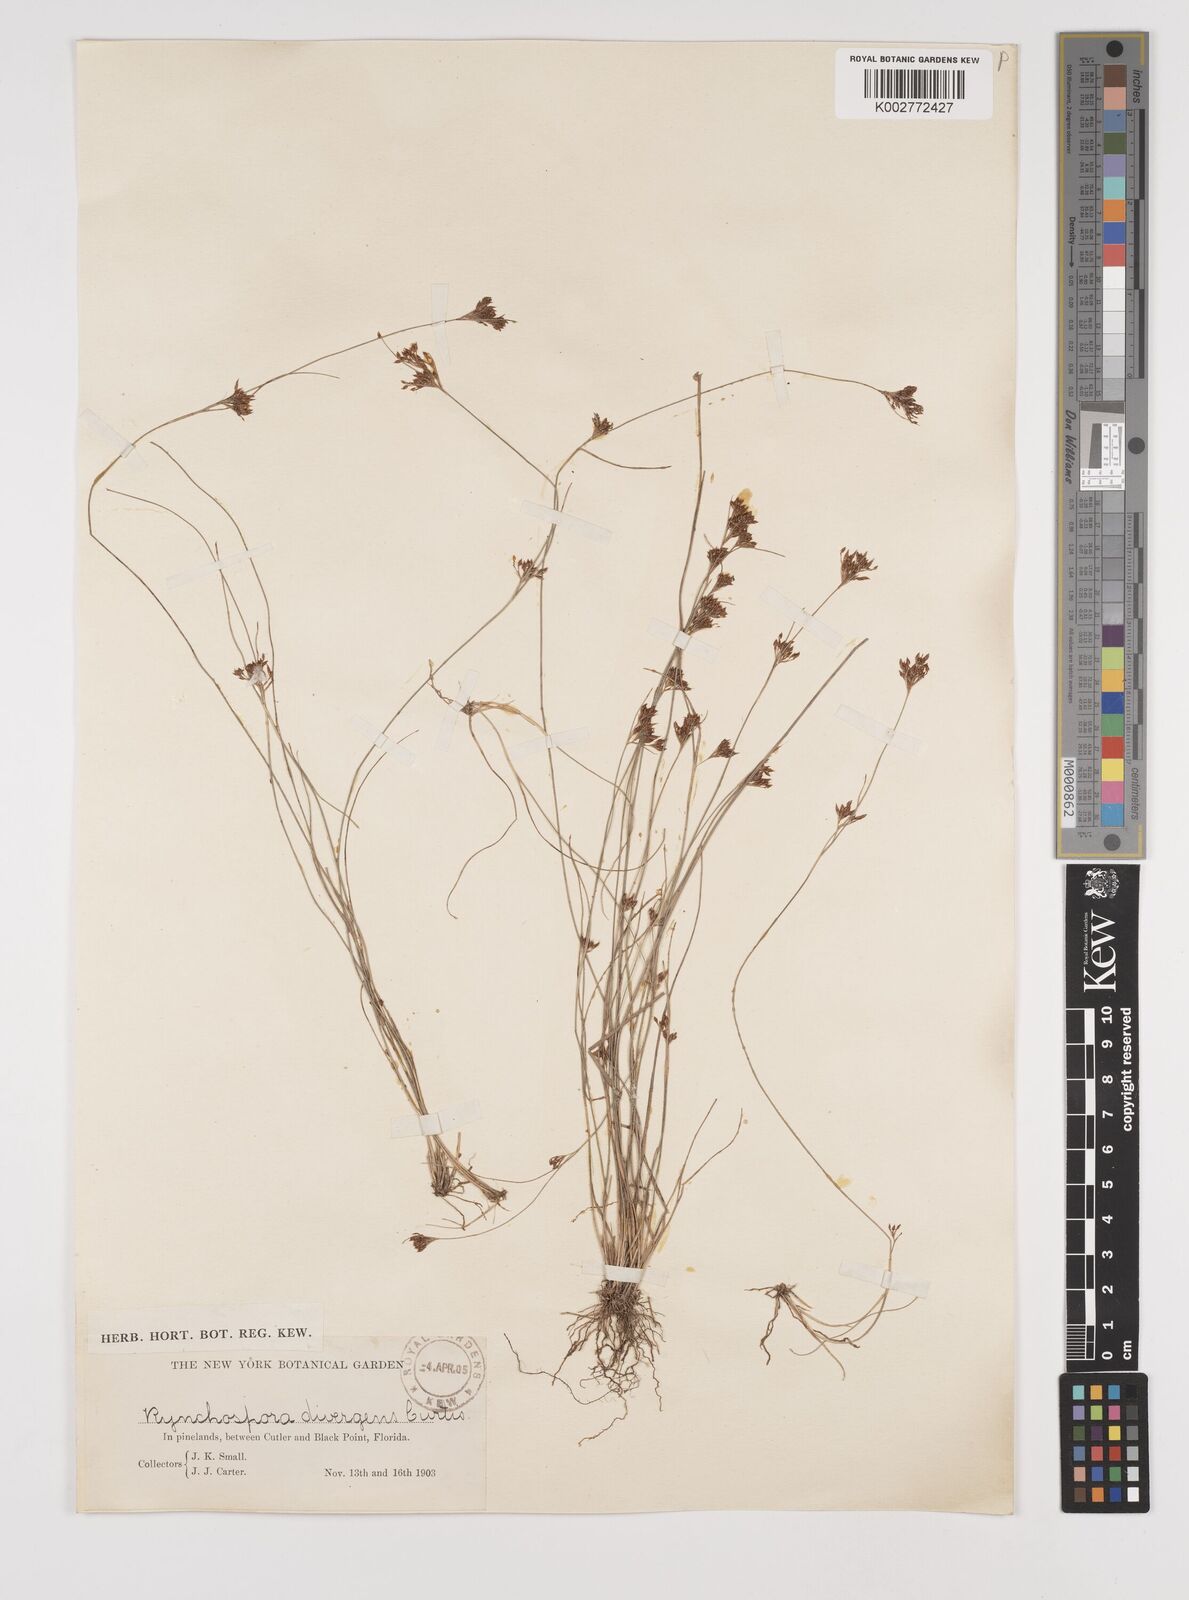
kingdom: Plantae
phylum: Tracheophyta
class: Liliopsida
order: Poales
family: Cyperaceae
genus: Rhynchospora
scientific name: Rhynchospora divergens
